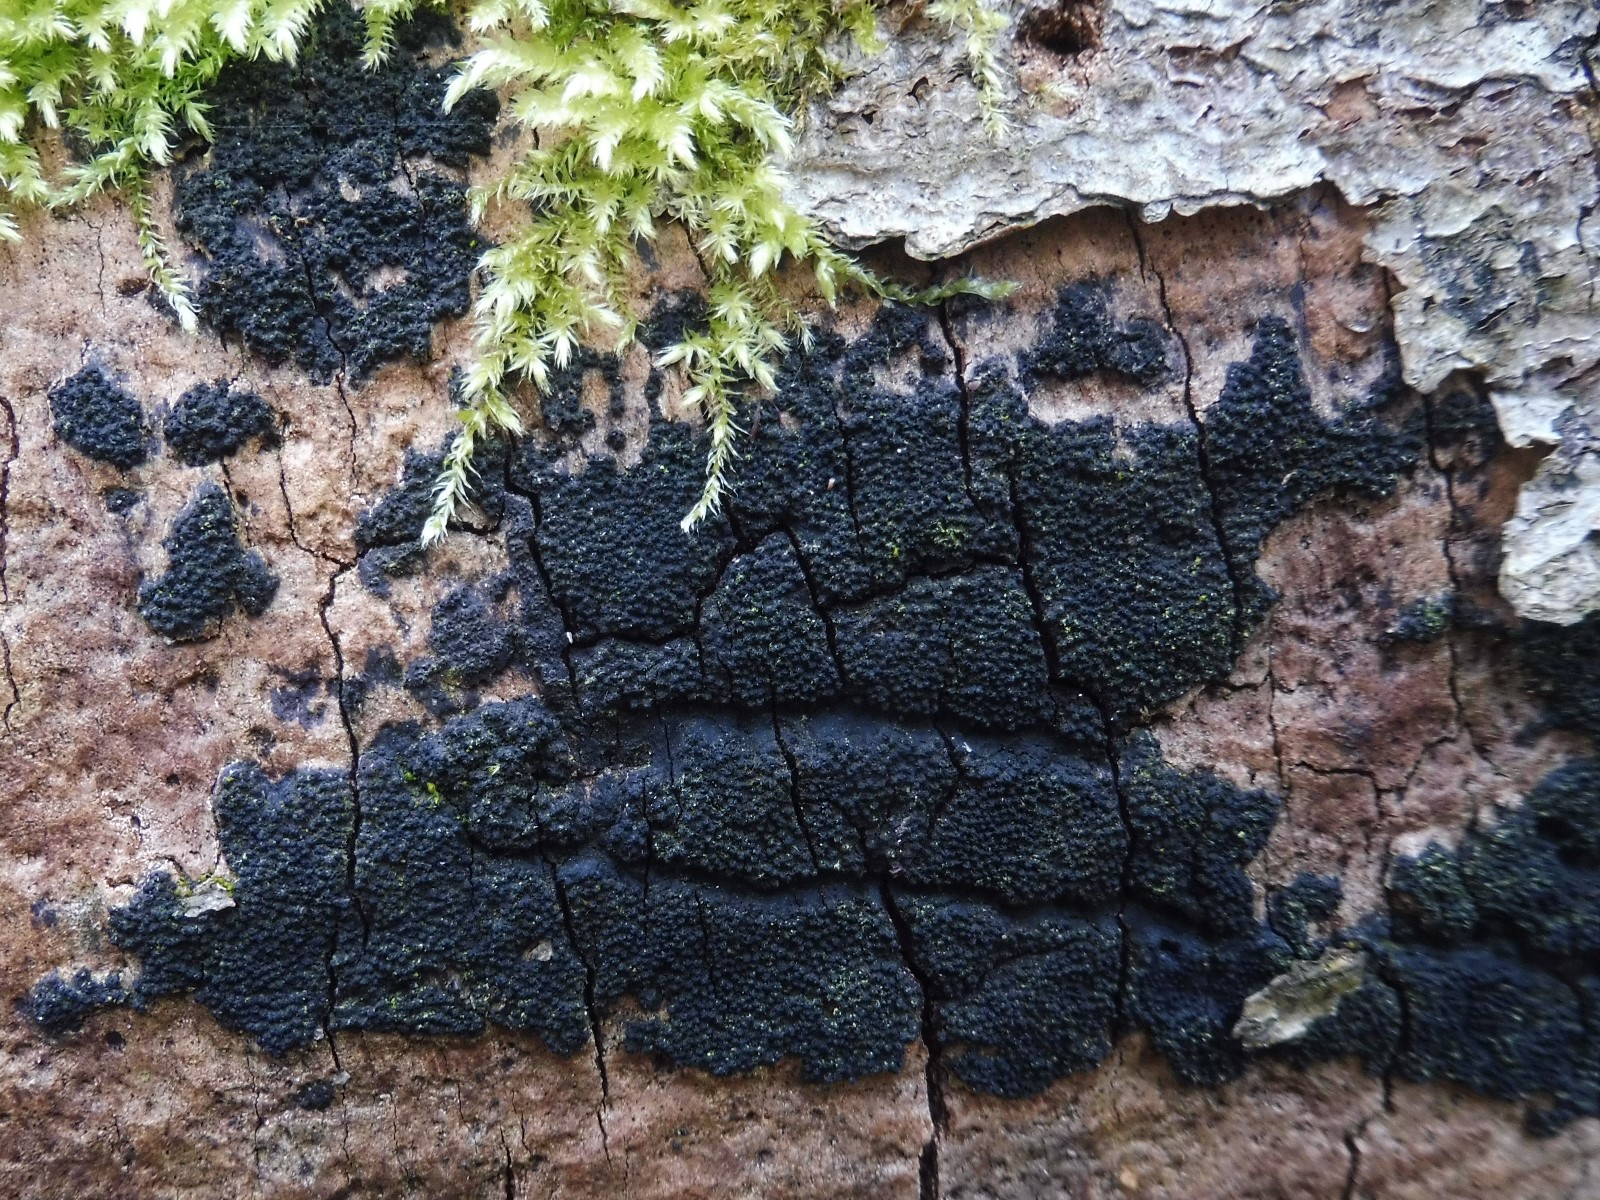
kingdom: Fungi
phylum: Ascomycota
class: Sordariomycetes
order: Xylariales
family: Diatrypaceae
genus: Eutypa
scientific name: Eutypa spinosa
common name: grov kulskorpe
